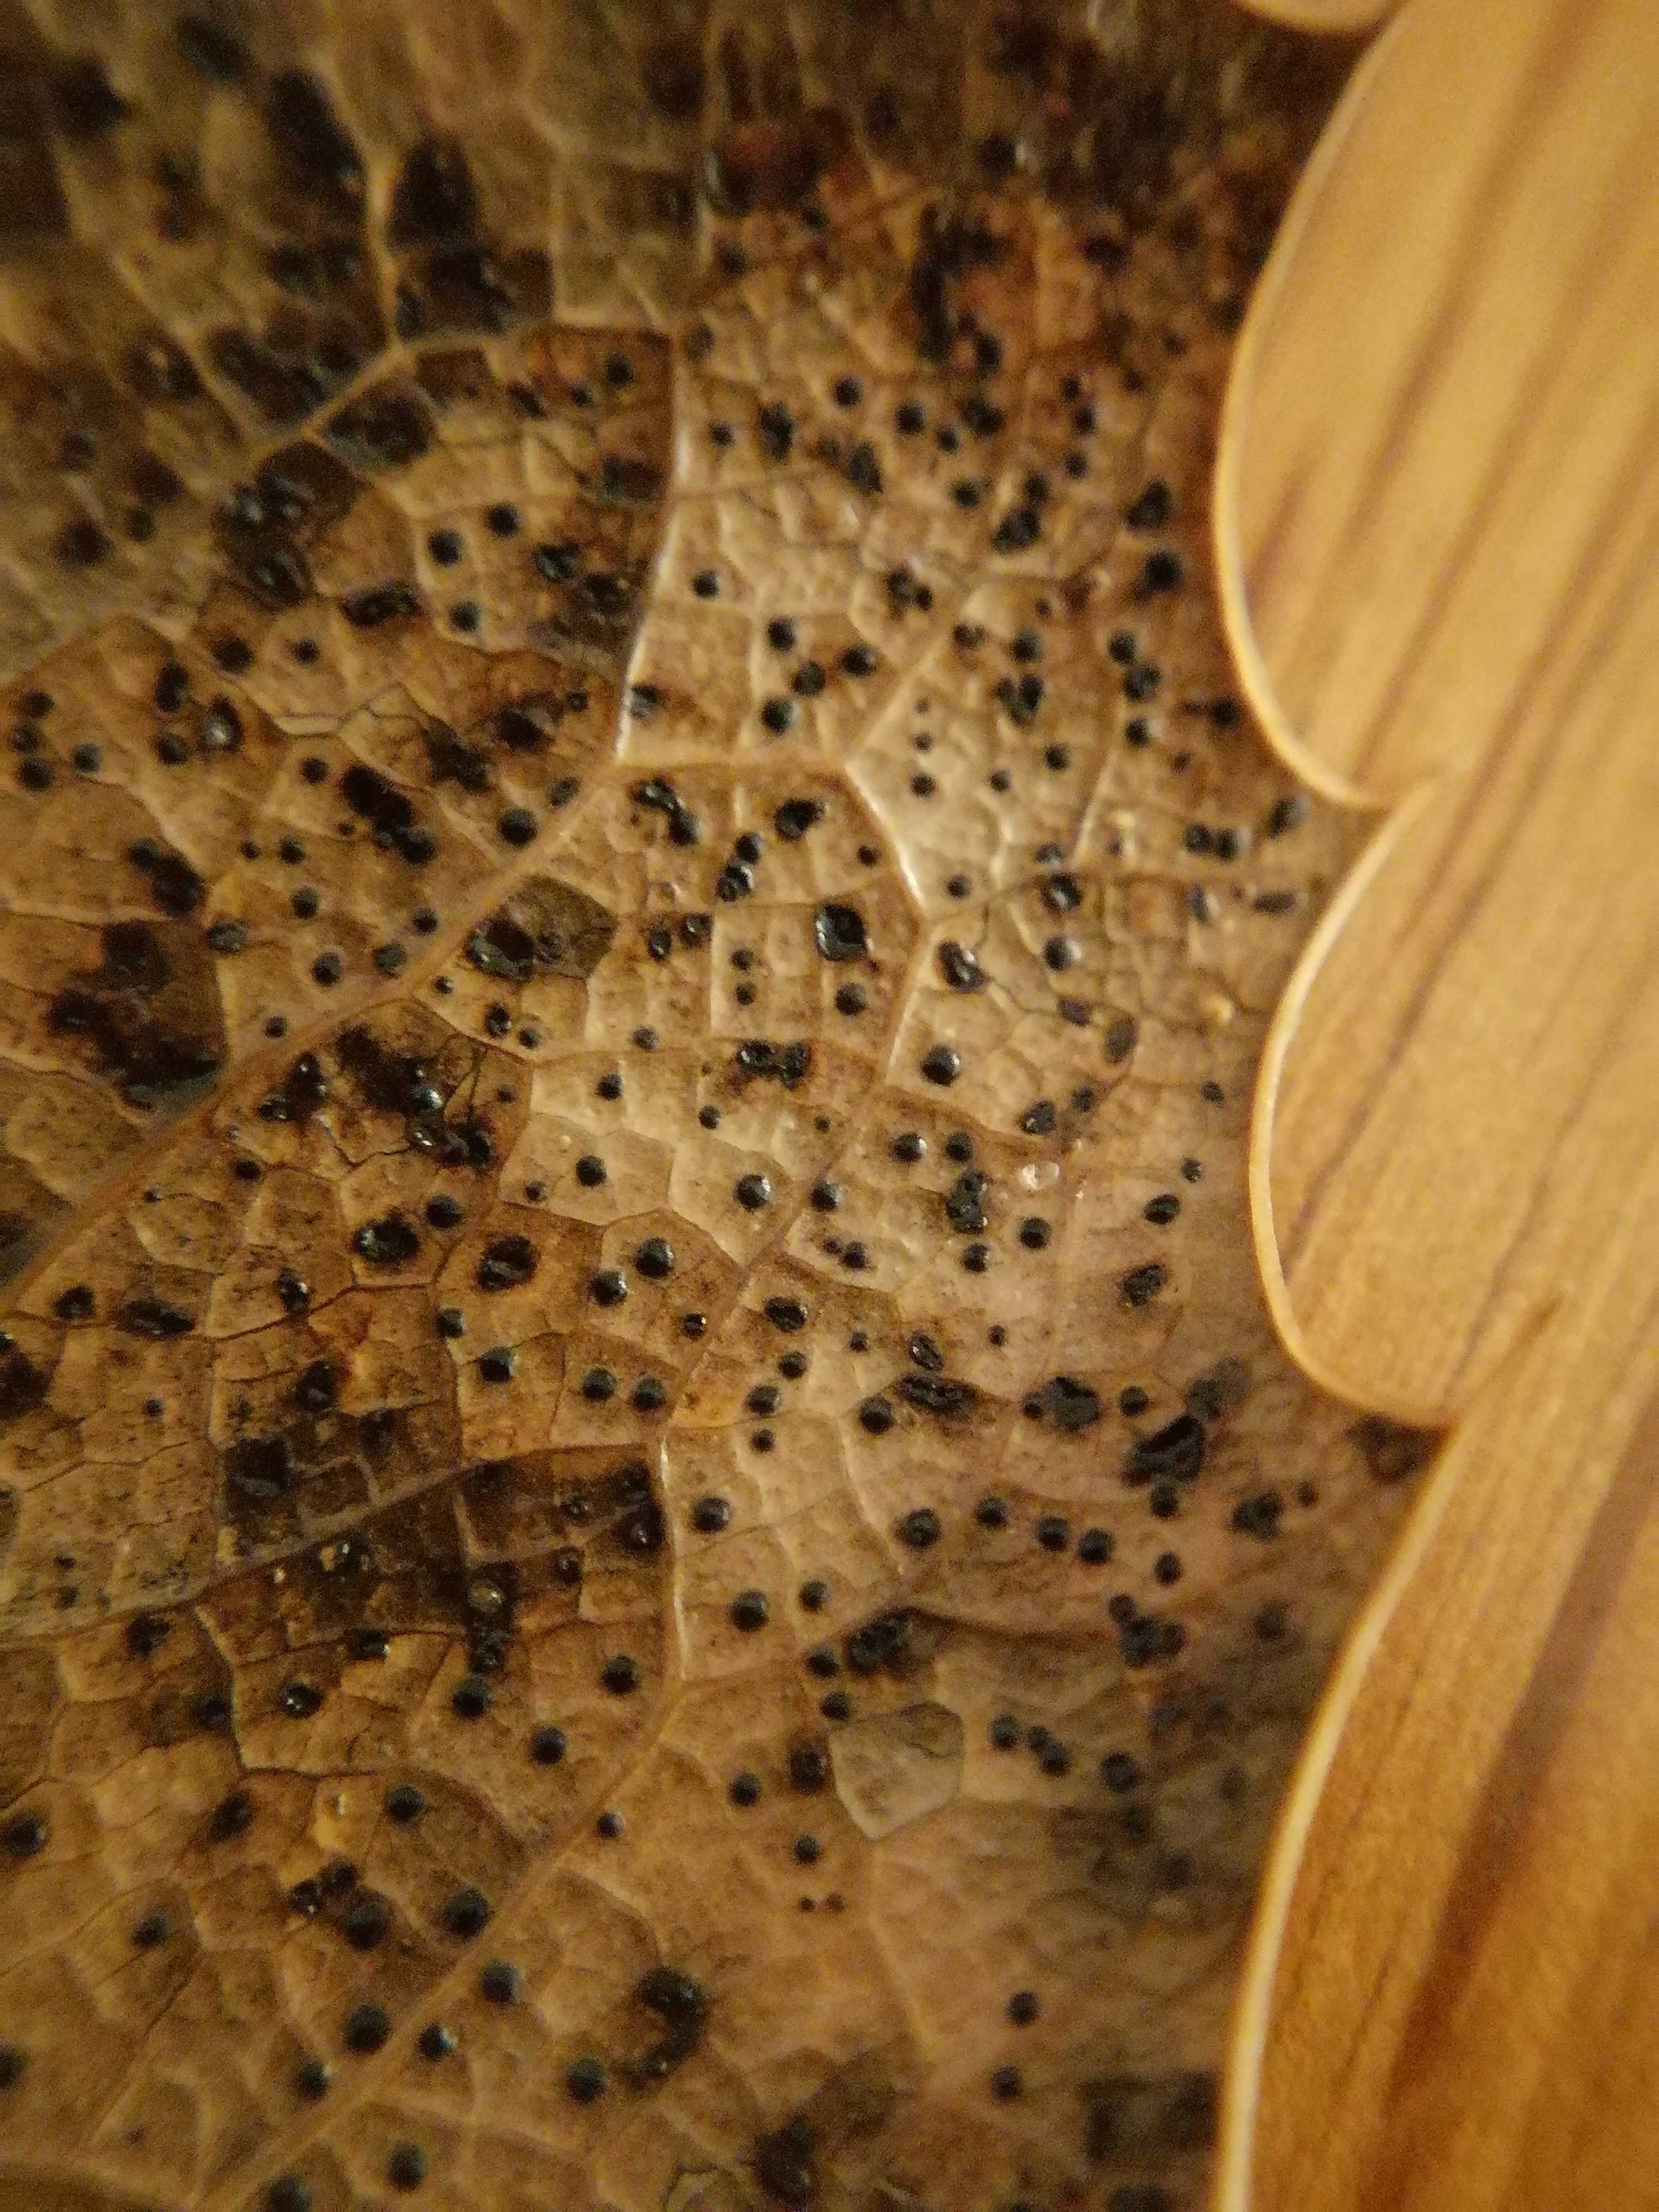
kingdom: Fungi
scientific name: Fungi
